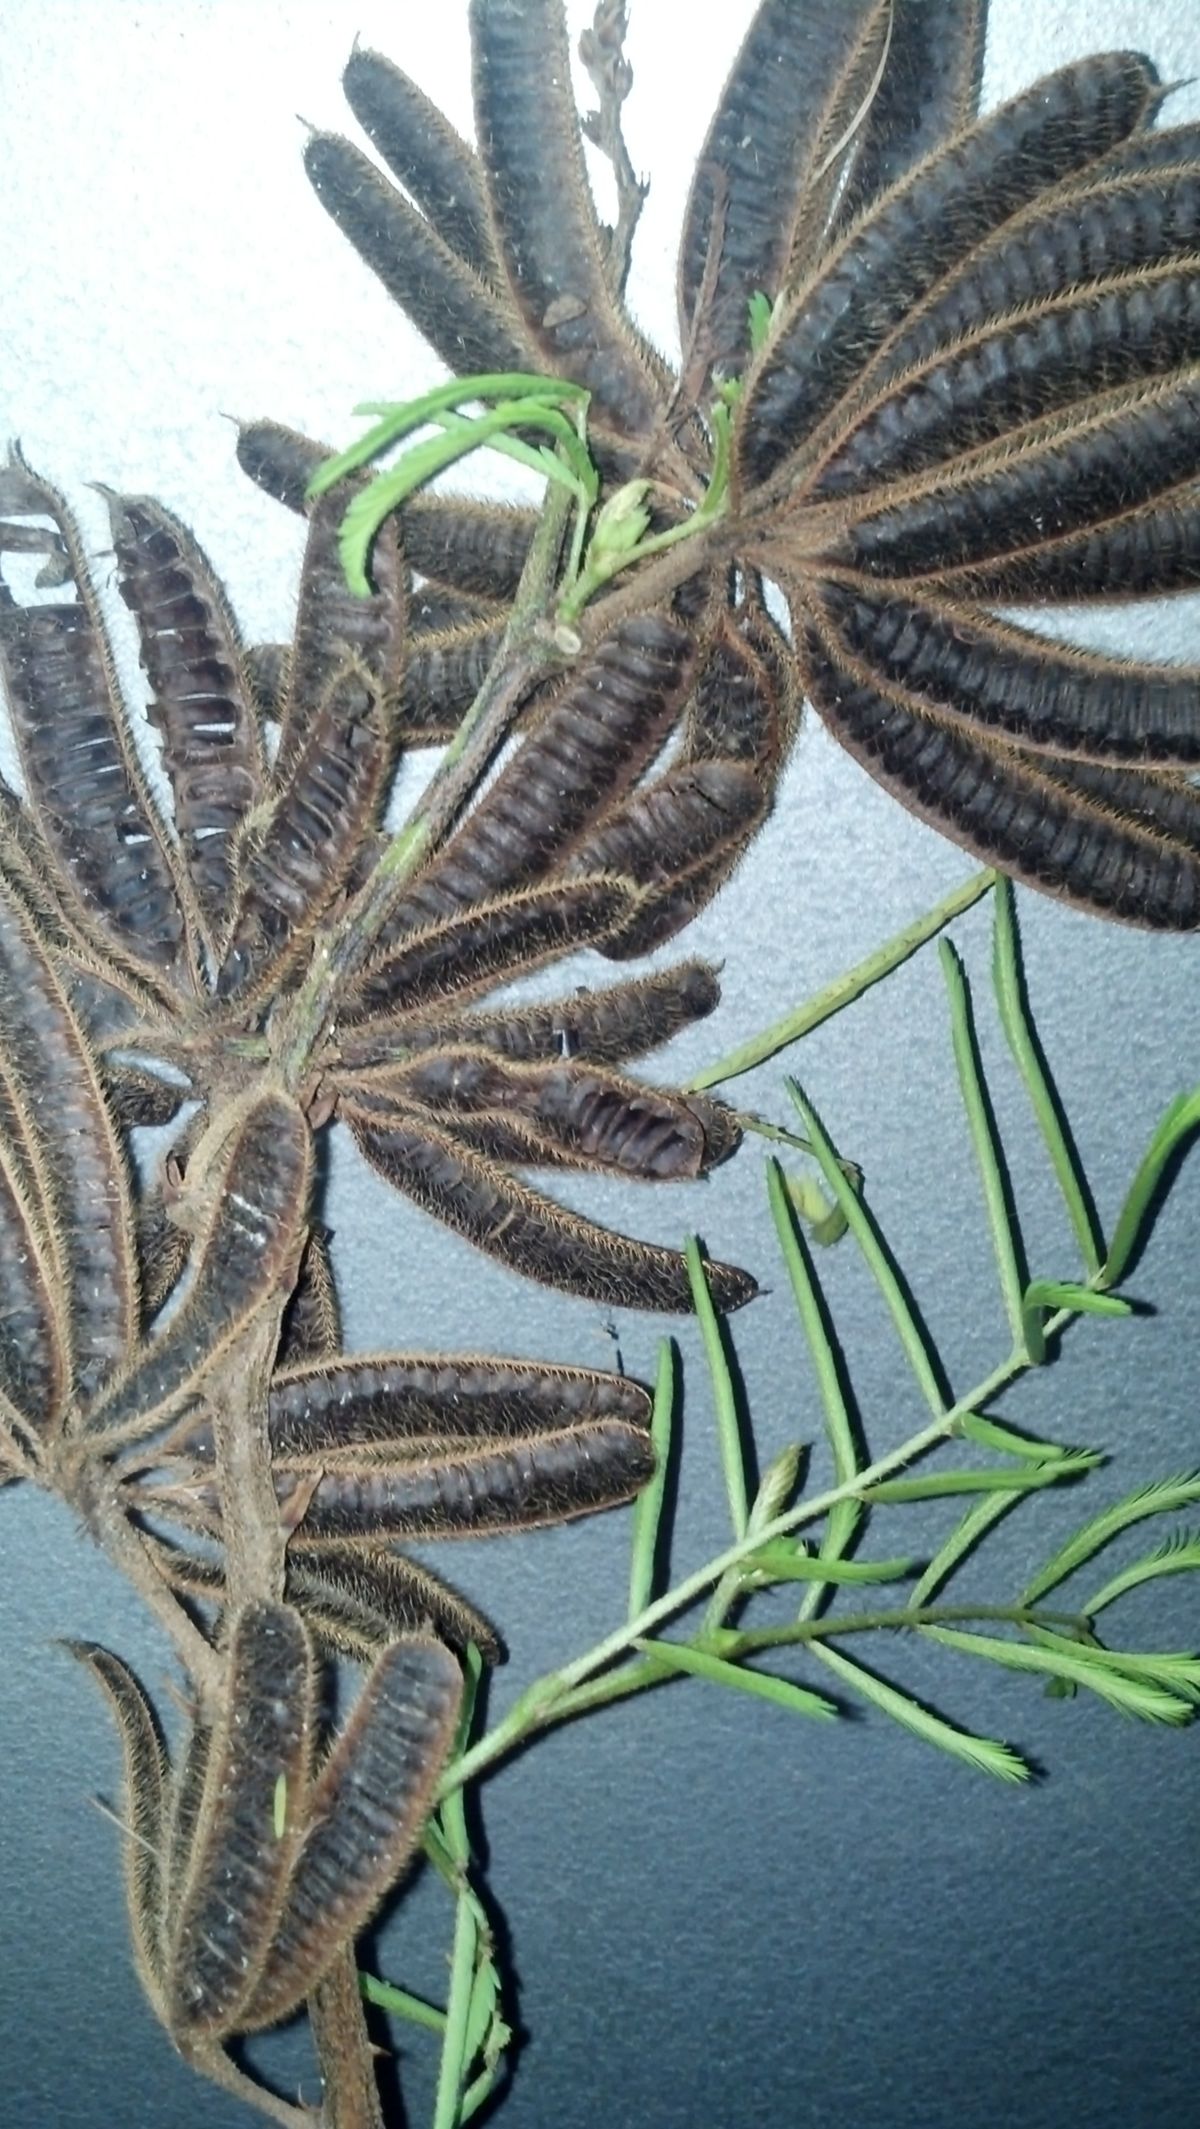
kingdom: Plantae
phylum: Tracheophyta
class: Magnoliopsida
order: Fabales
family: Fabaceae
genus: Mimosa
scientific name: Mimosa pigra
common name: Black mimosa
